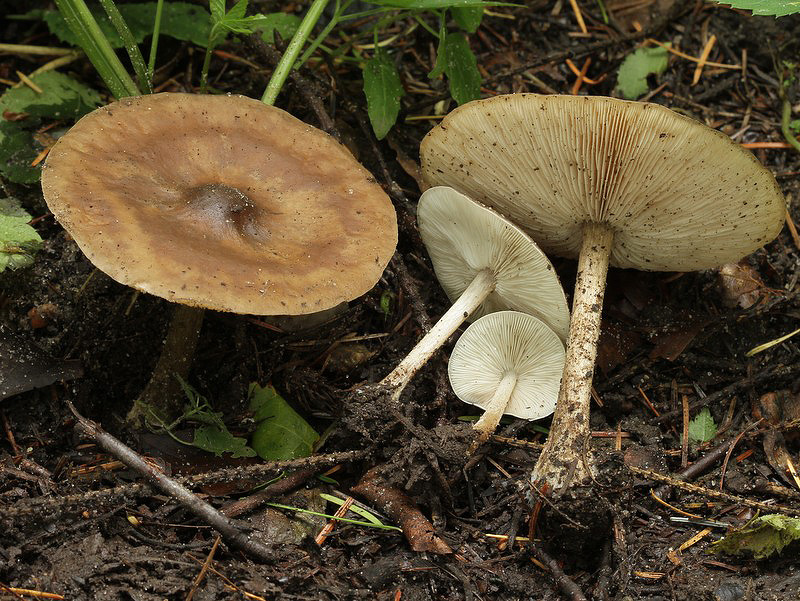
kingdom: Fungi
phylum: Basidiomycota
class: Agaricomycetes
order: Agaricales
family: Tricholomataceae
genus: Melanoleuca
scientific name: Melanoleuca polioleuca
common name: hvidbladet munkehat
